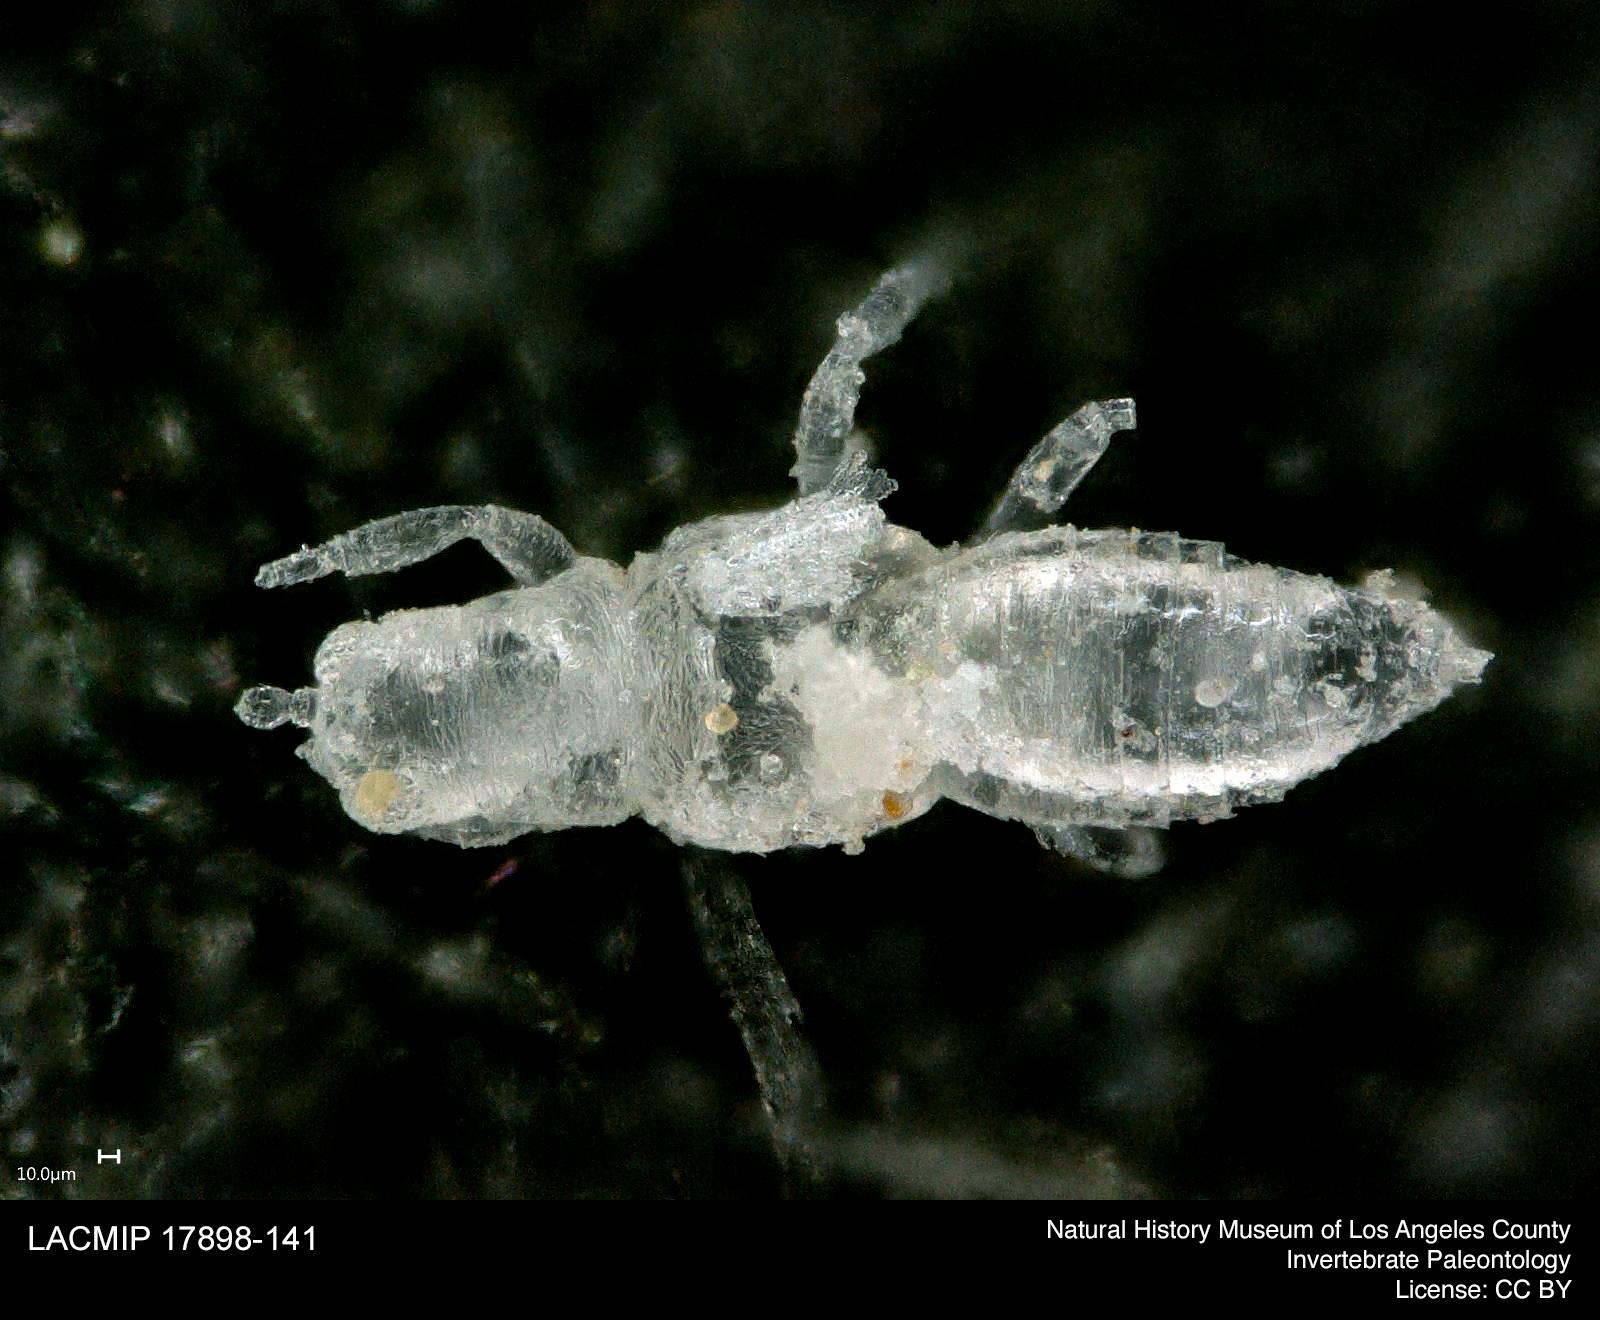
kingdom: Animalia
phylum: Arthropoda
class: Insecta
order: Thysanoptera
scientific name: Thysanoptera
